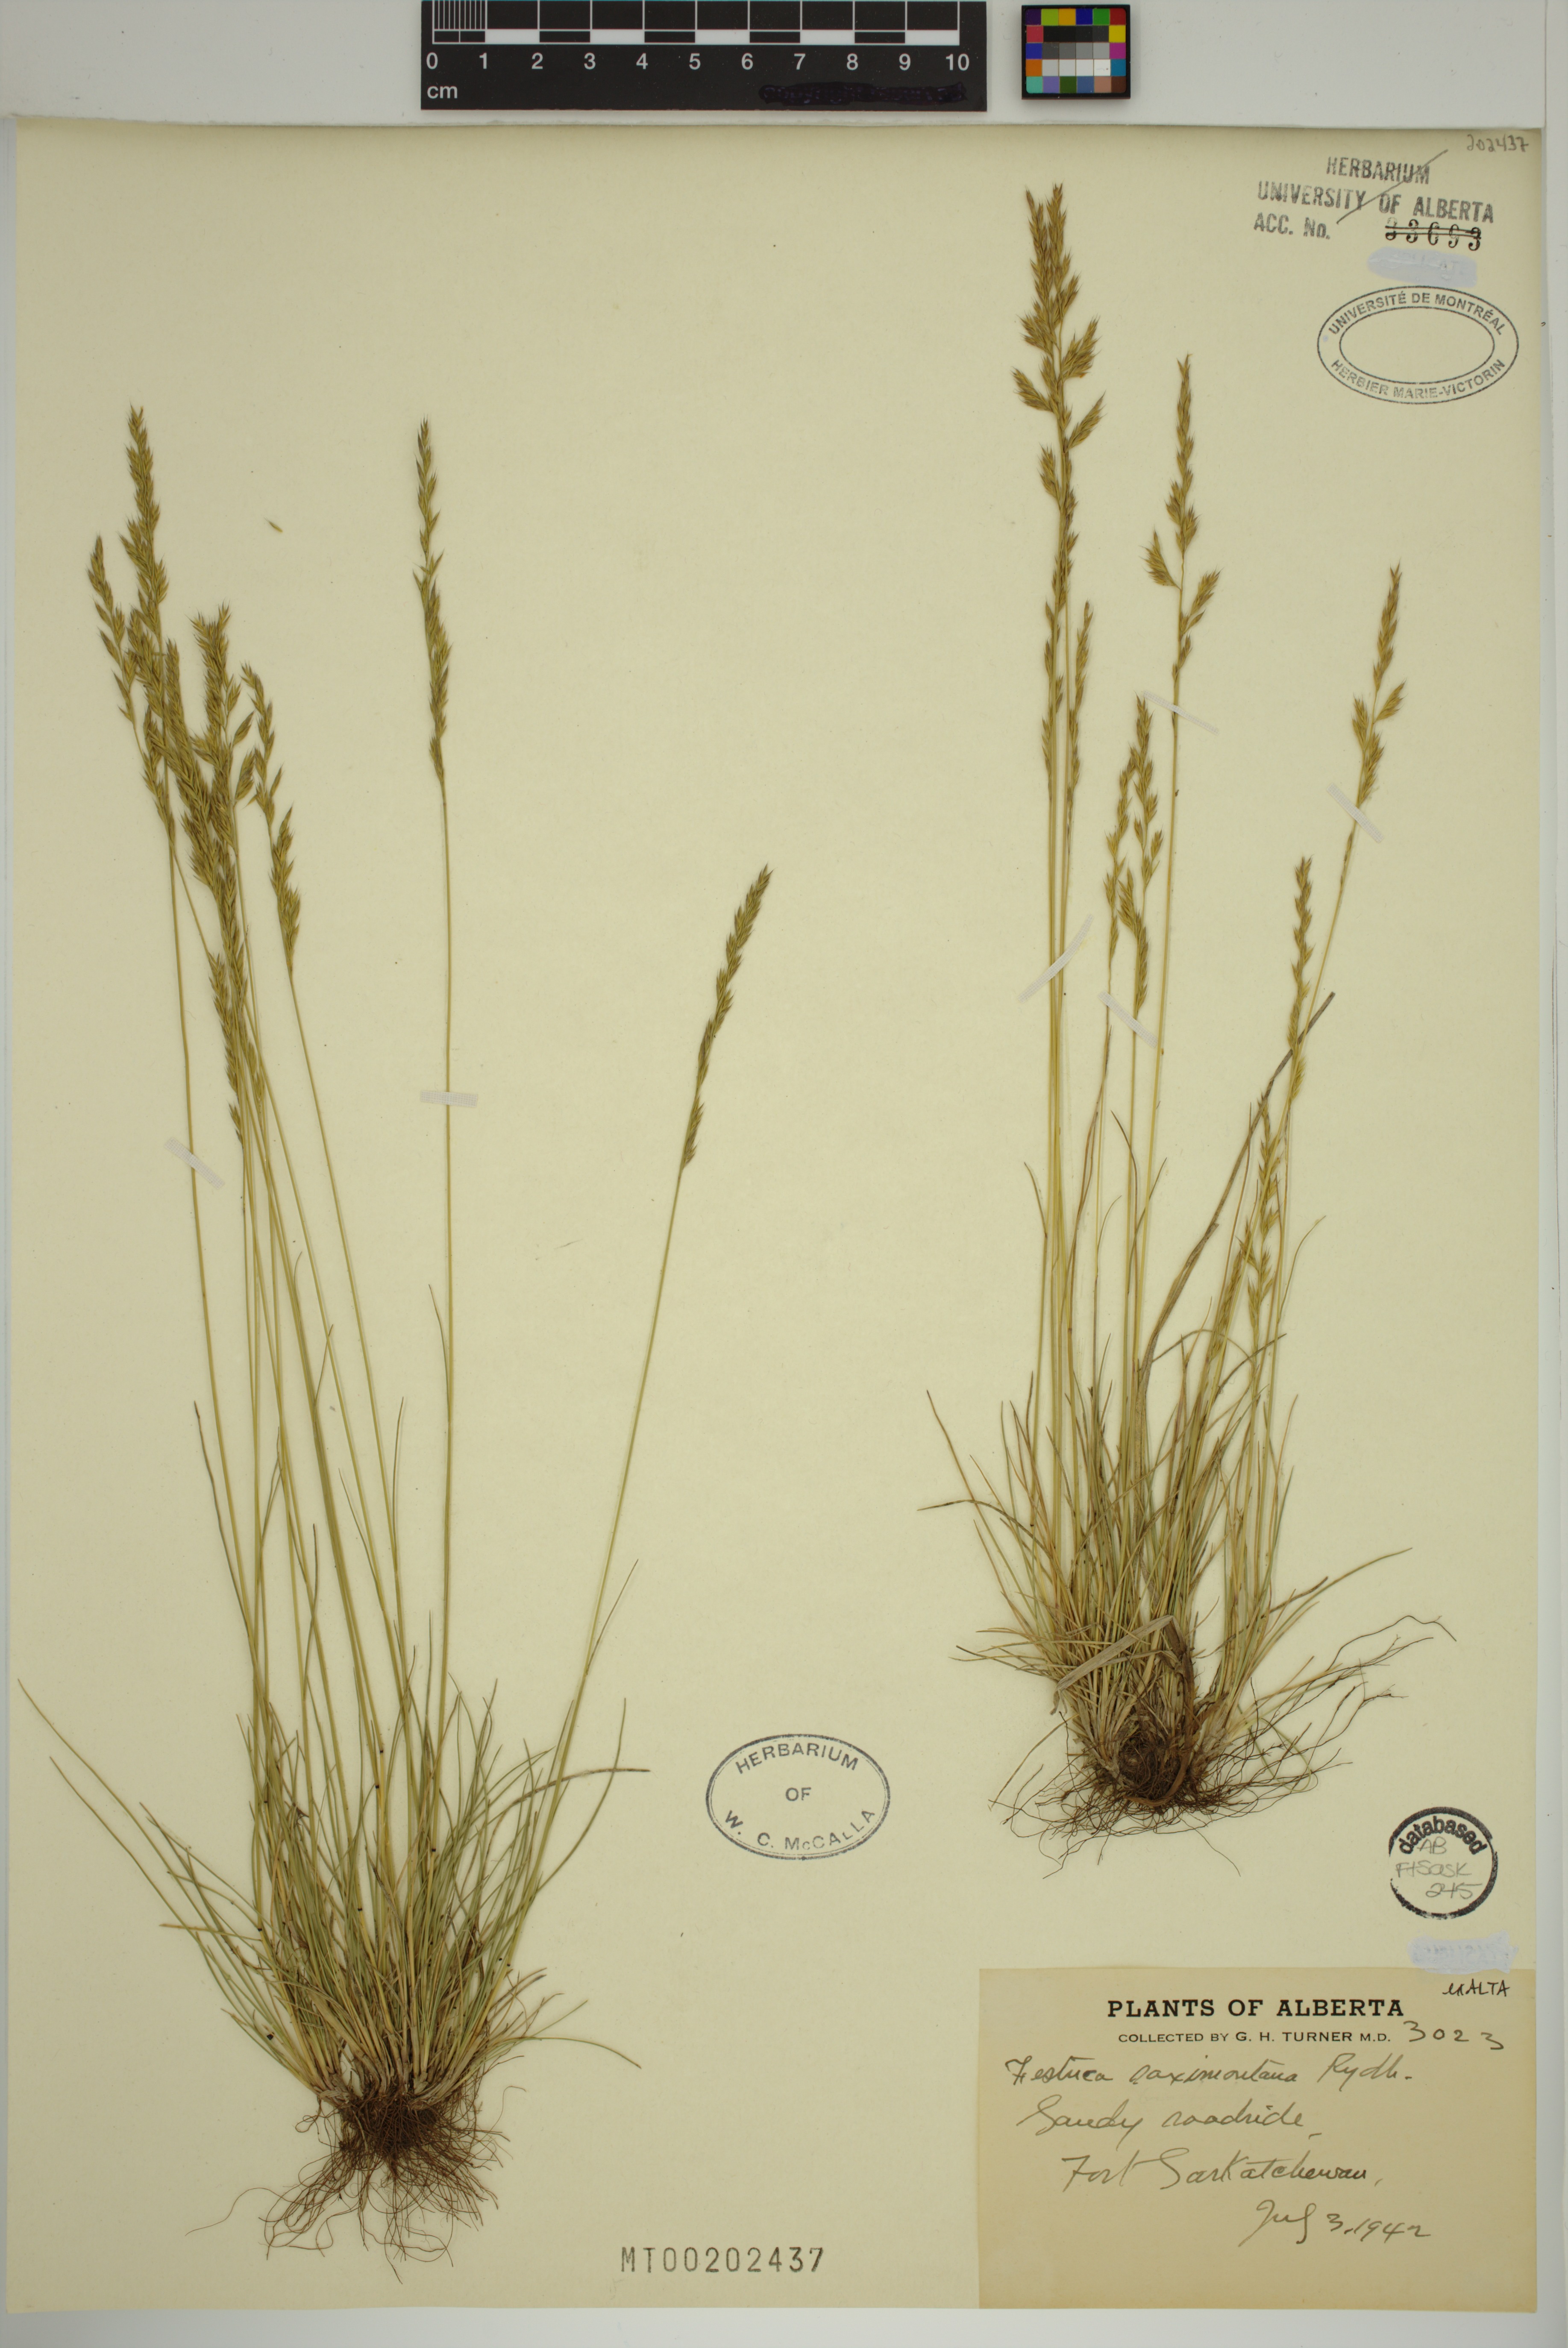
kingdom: Plantae
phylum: Tracheophyta
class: Liliopsida
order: Poales
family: Poaceae
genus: Festuca
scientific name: Festuca saximontana
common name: Mountain fescue
